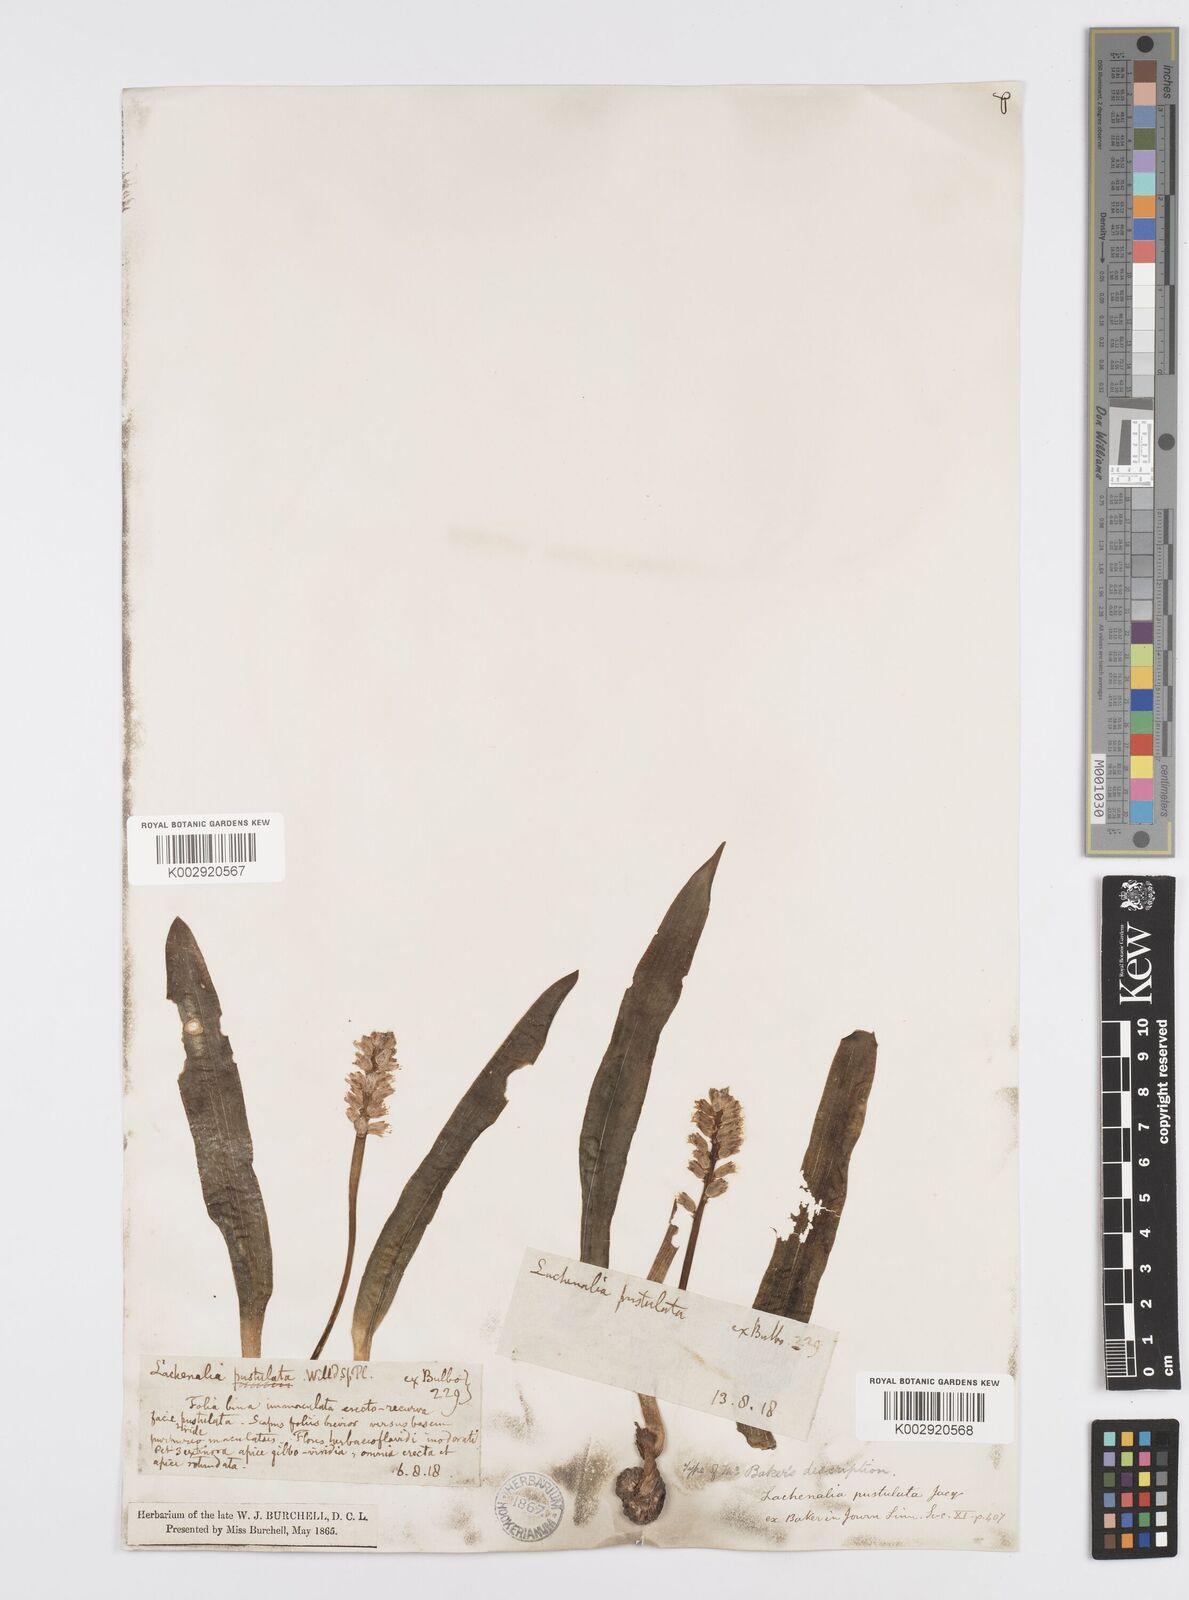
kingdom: Plantae
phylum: Tracheophyta
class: Liliopsida
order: Asparagales
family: Asparagaceae
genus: Lachenalia
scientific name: Lachenalia pallida
